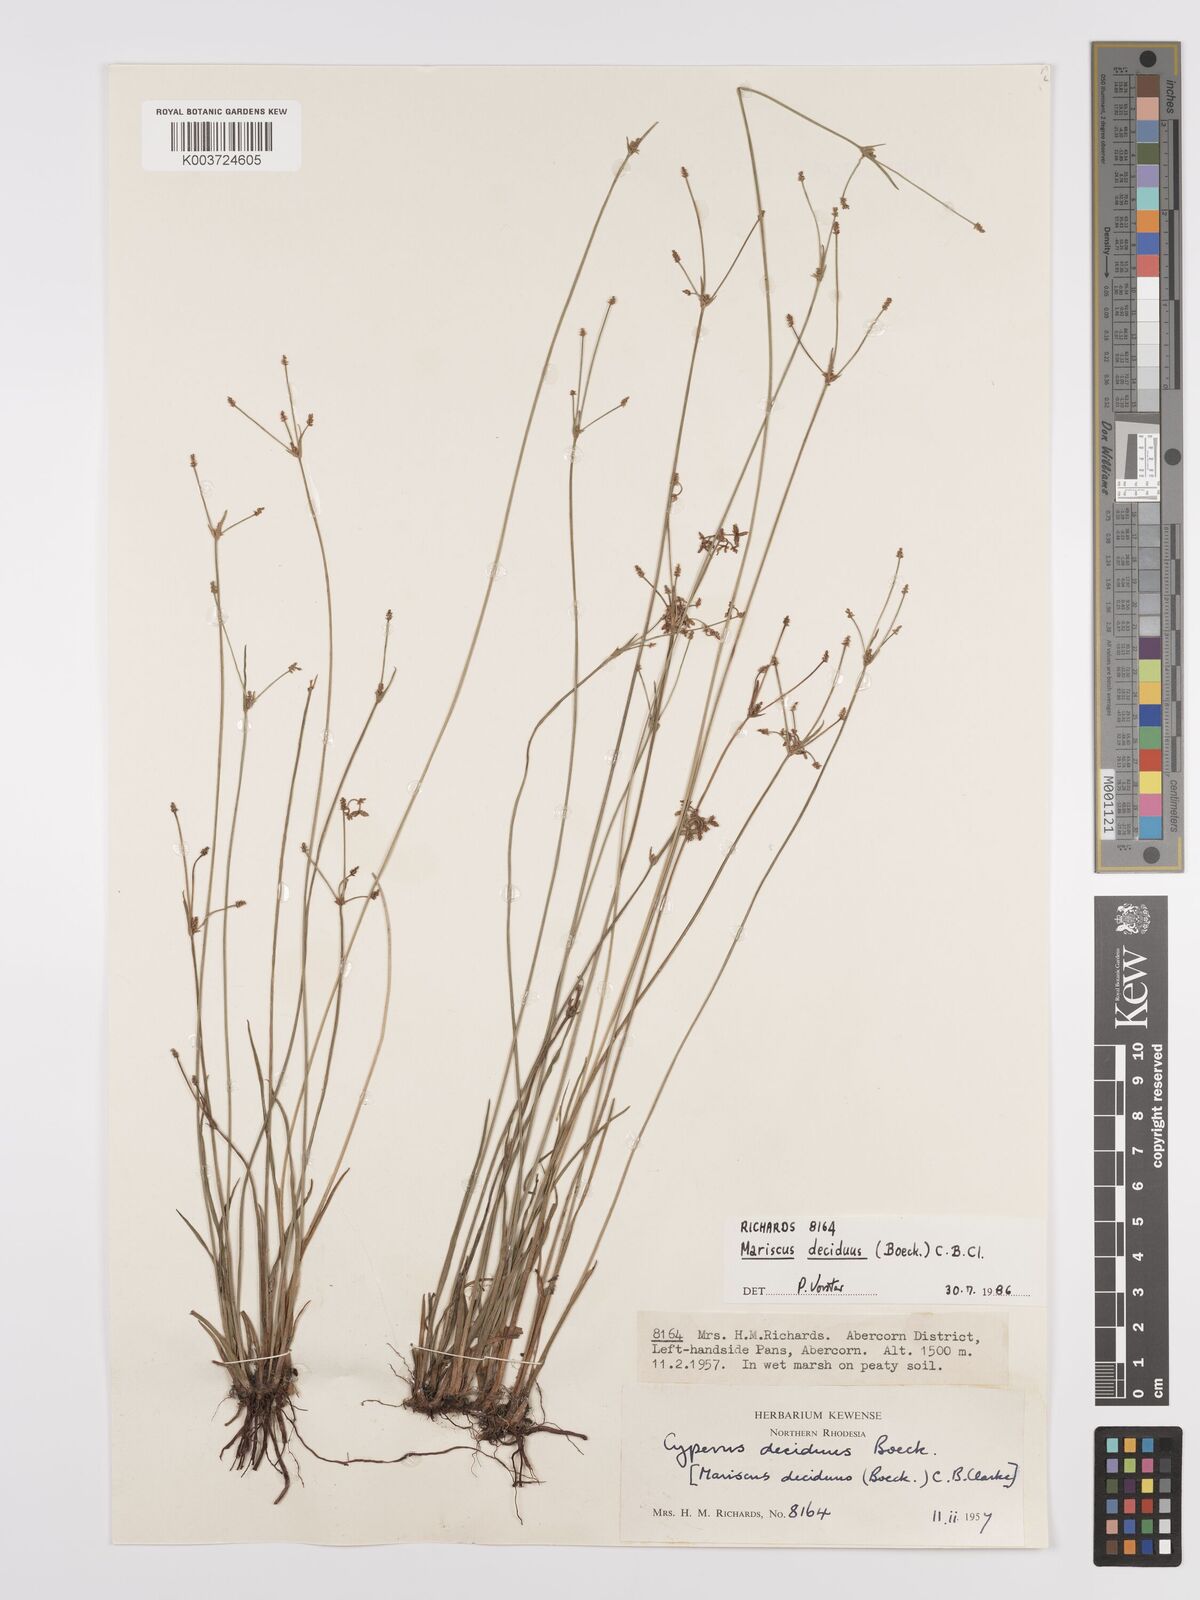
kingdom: Plantae
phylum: Tracheophyta
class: Liliopsida
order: Poales
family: Cyperaceae
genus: Cyperus
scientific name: Cyperus deciduus
